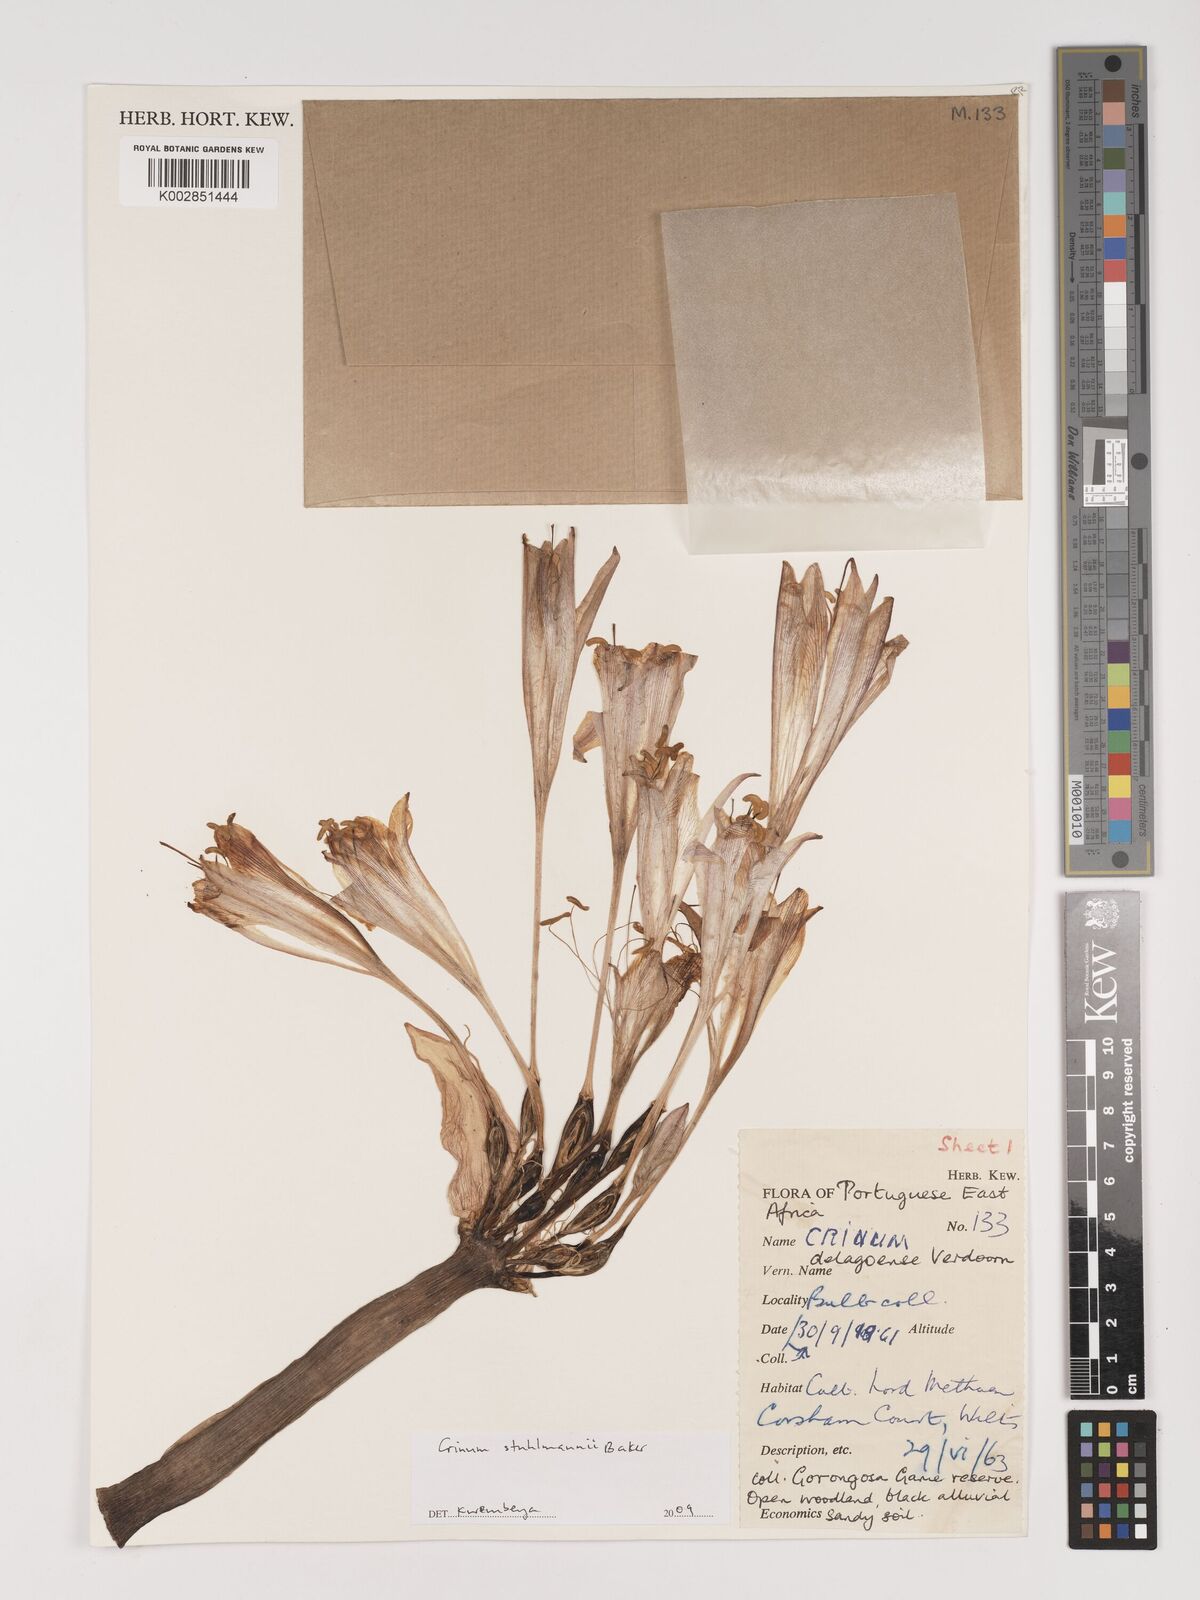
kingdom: Plantae
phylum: Tracheophyta
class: Liliopsida
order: Asparagales
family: Amaryllidaceae
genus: Crinum
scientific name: Crinum stuhlmannii
